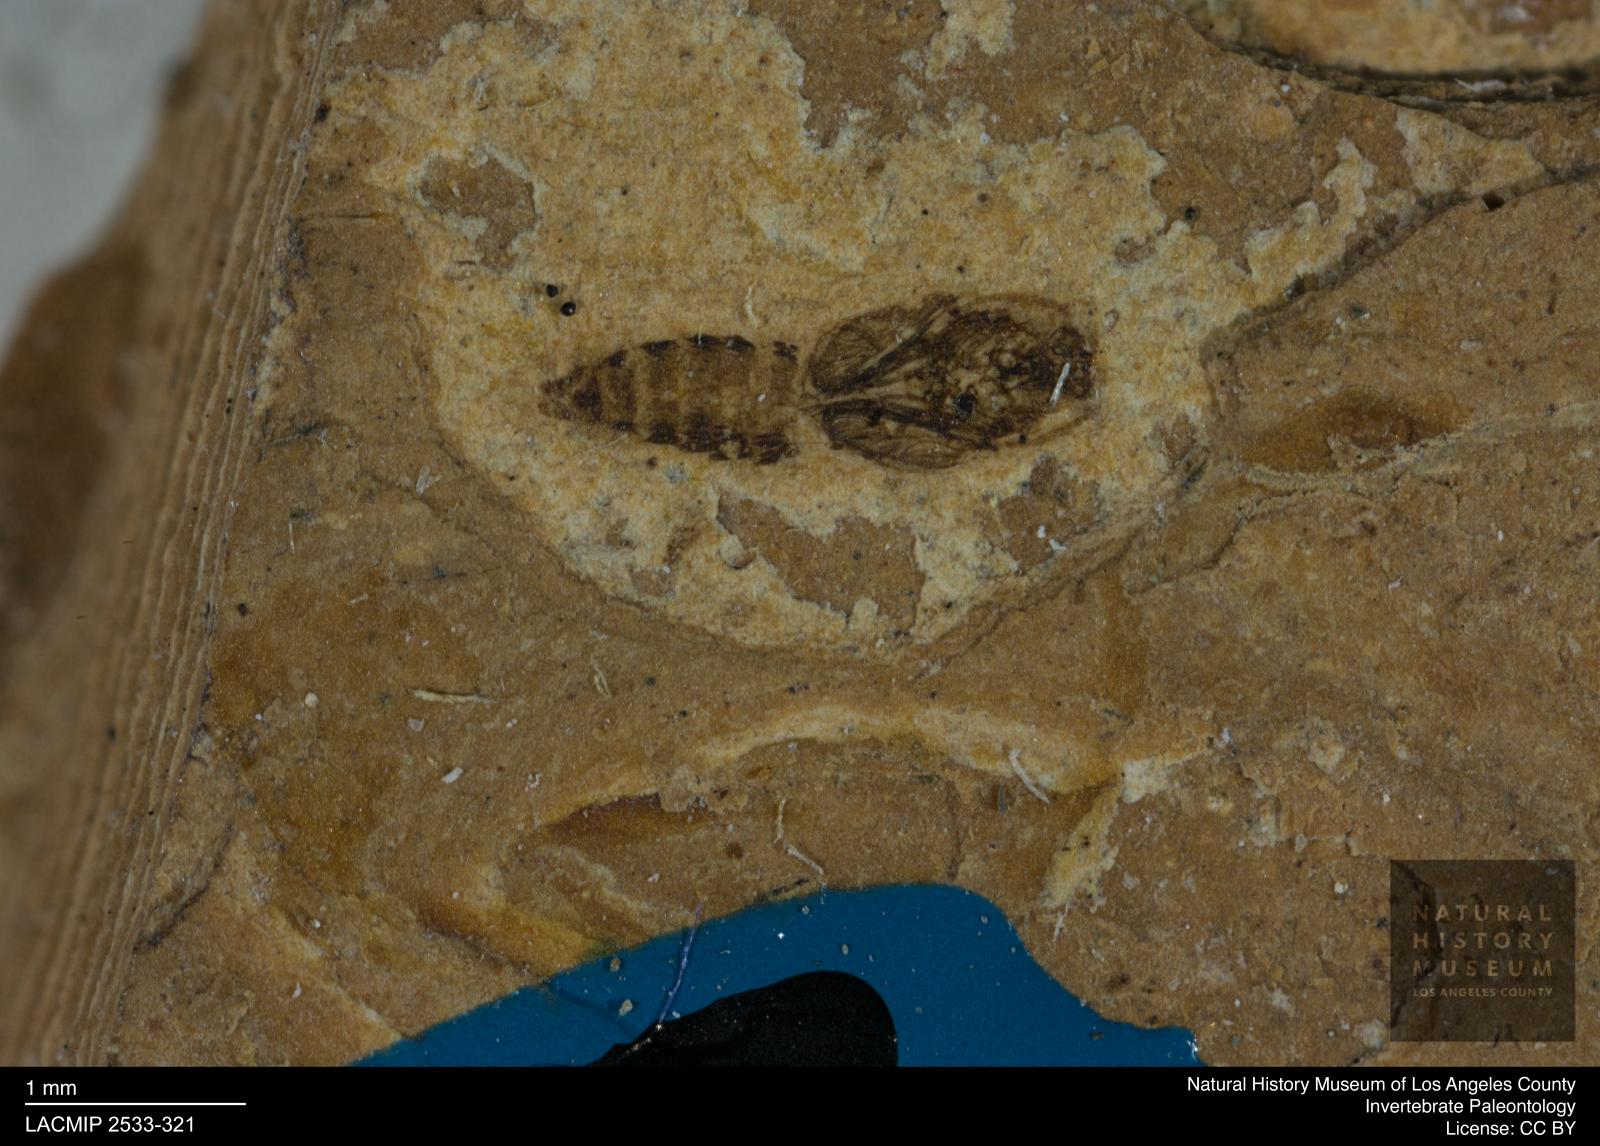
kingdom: Animalia
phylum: Arthropoda
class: Insecta
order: Diptera
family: Ceratopogonidae
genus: Ceratopogon
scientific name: Ceratopogon
